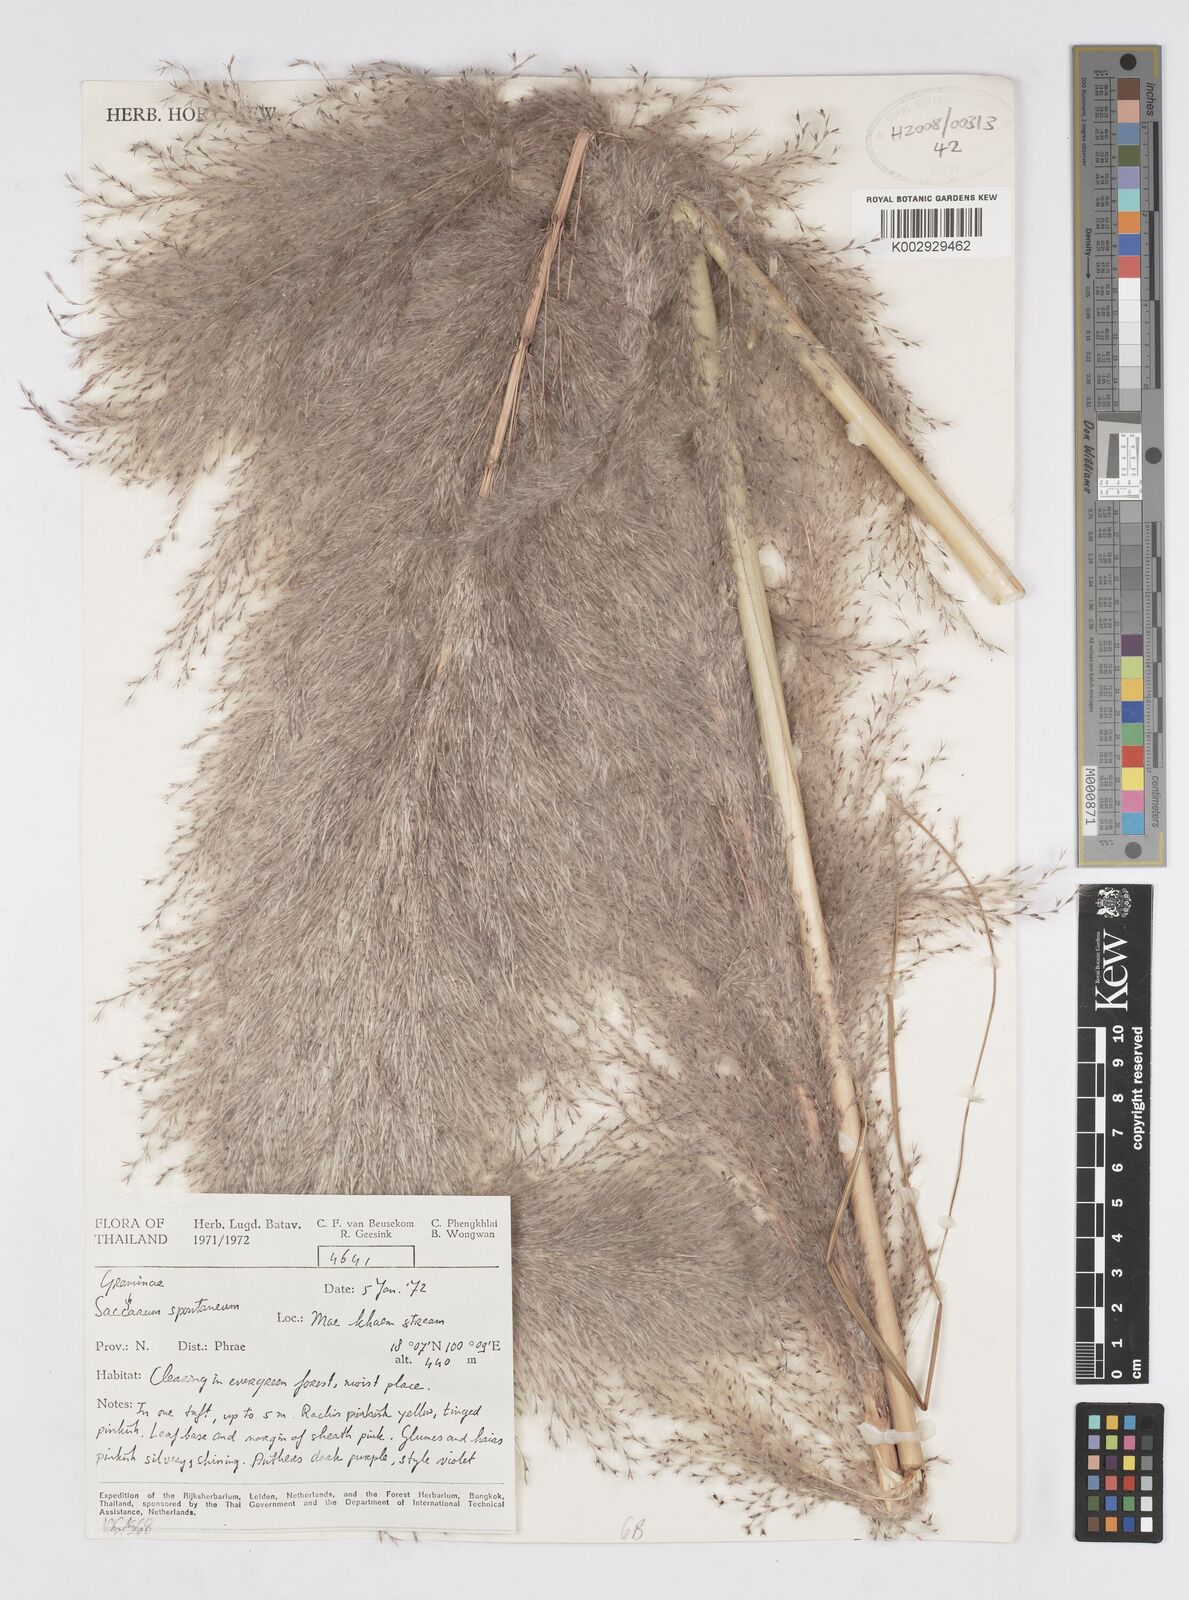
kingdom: Plantae
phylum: Tracheophyta
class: Liliopsida
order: Poales
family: Poaceae
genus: Saccharum
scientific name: Saccharum spontaneum
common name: Wild sugarcane
